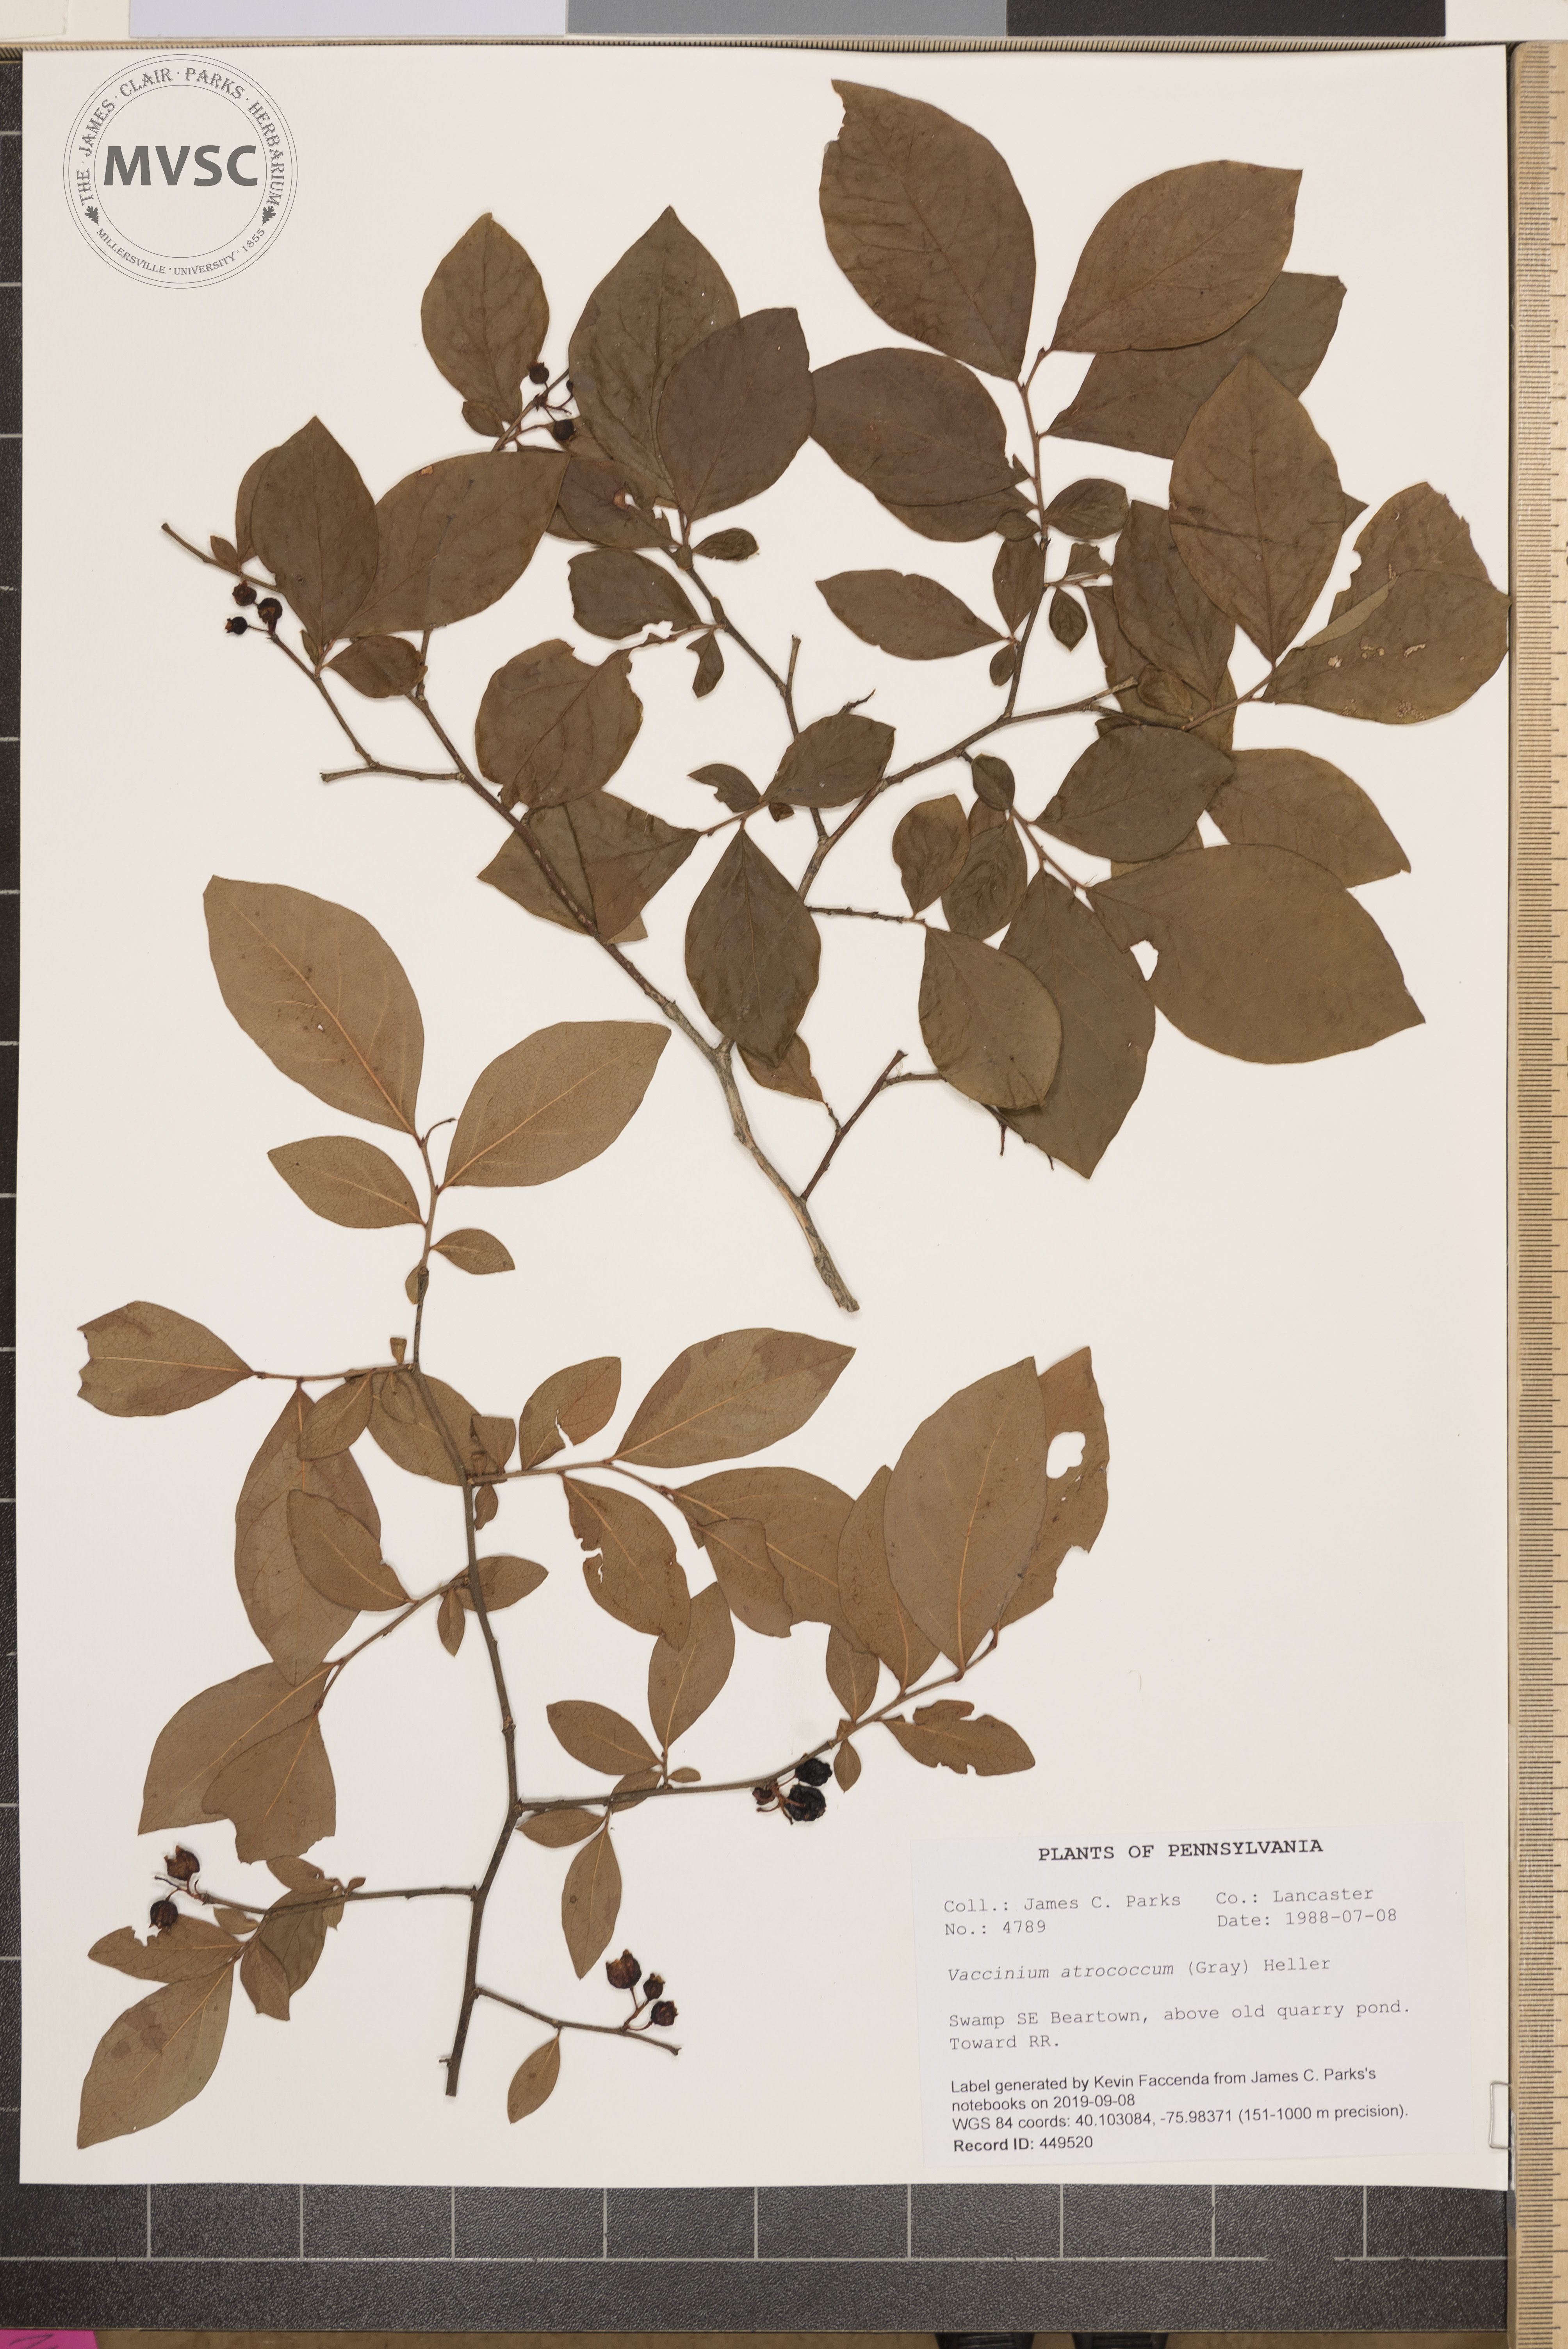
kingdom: Plantae
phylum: Tracheophyta
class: Magnoliopsida
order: Ericales
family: Ericaceae
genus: Vaccinium
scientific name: Vaccinium
